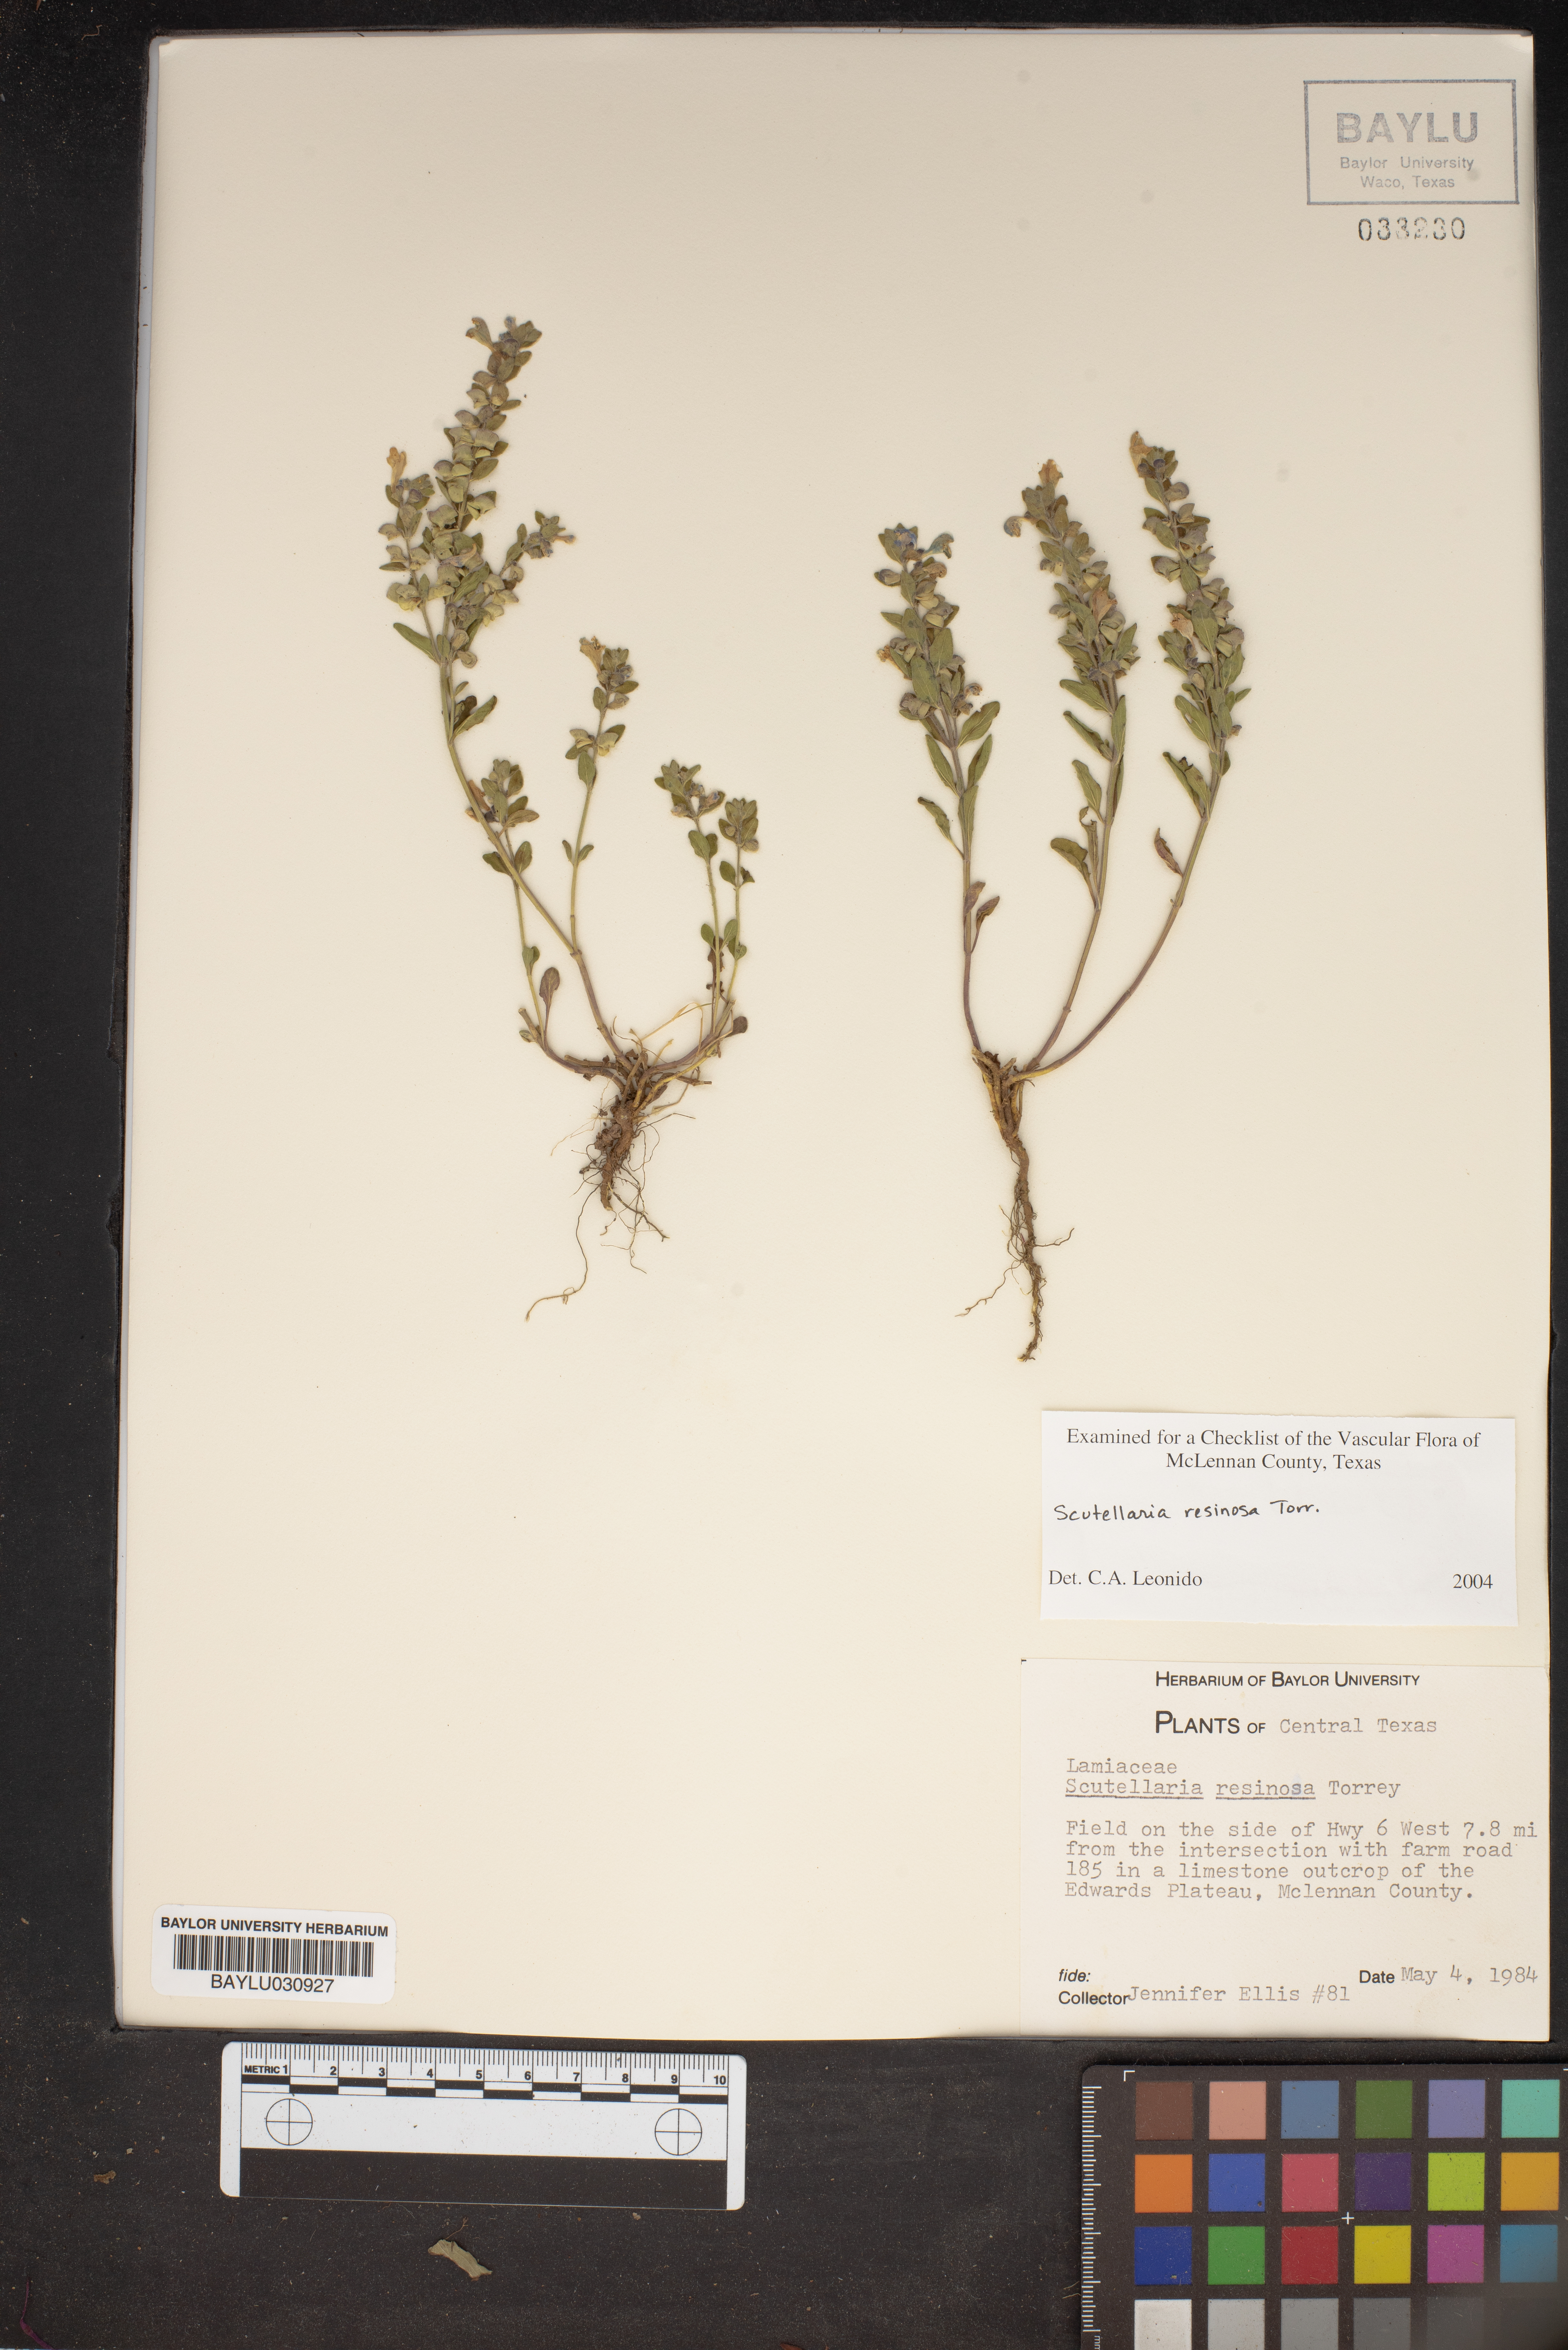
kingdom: Plantae
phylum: Tracheophyta
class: Magnoliopsida
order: Lamiales
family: Lamiaceae
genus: Scutellaria
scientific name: Scutellaria resinosa
